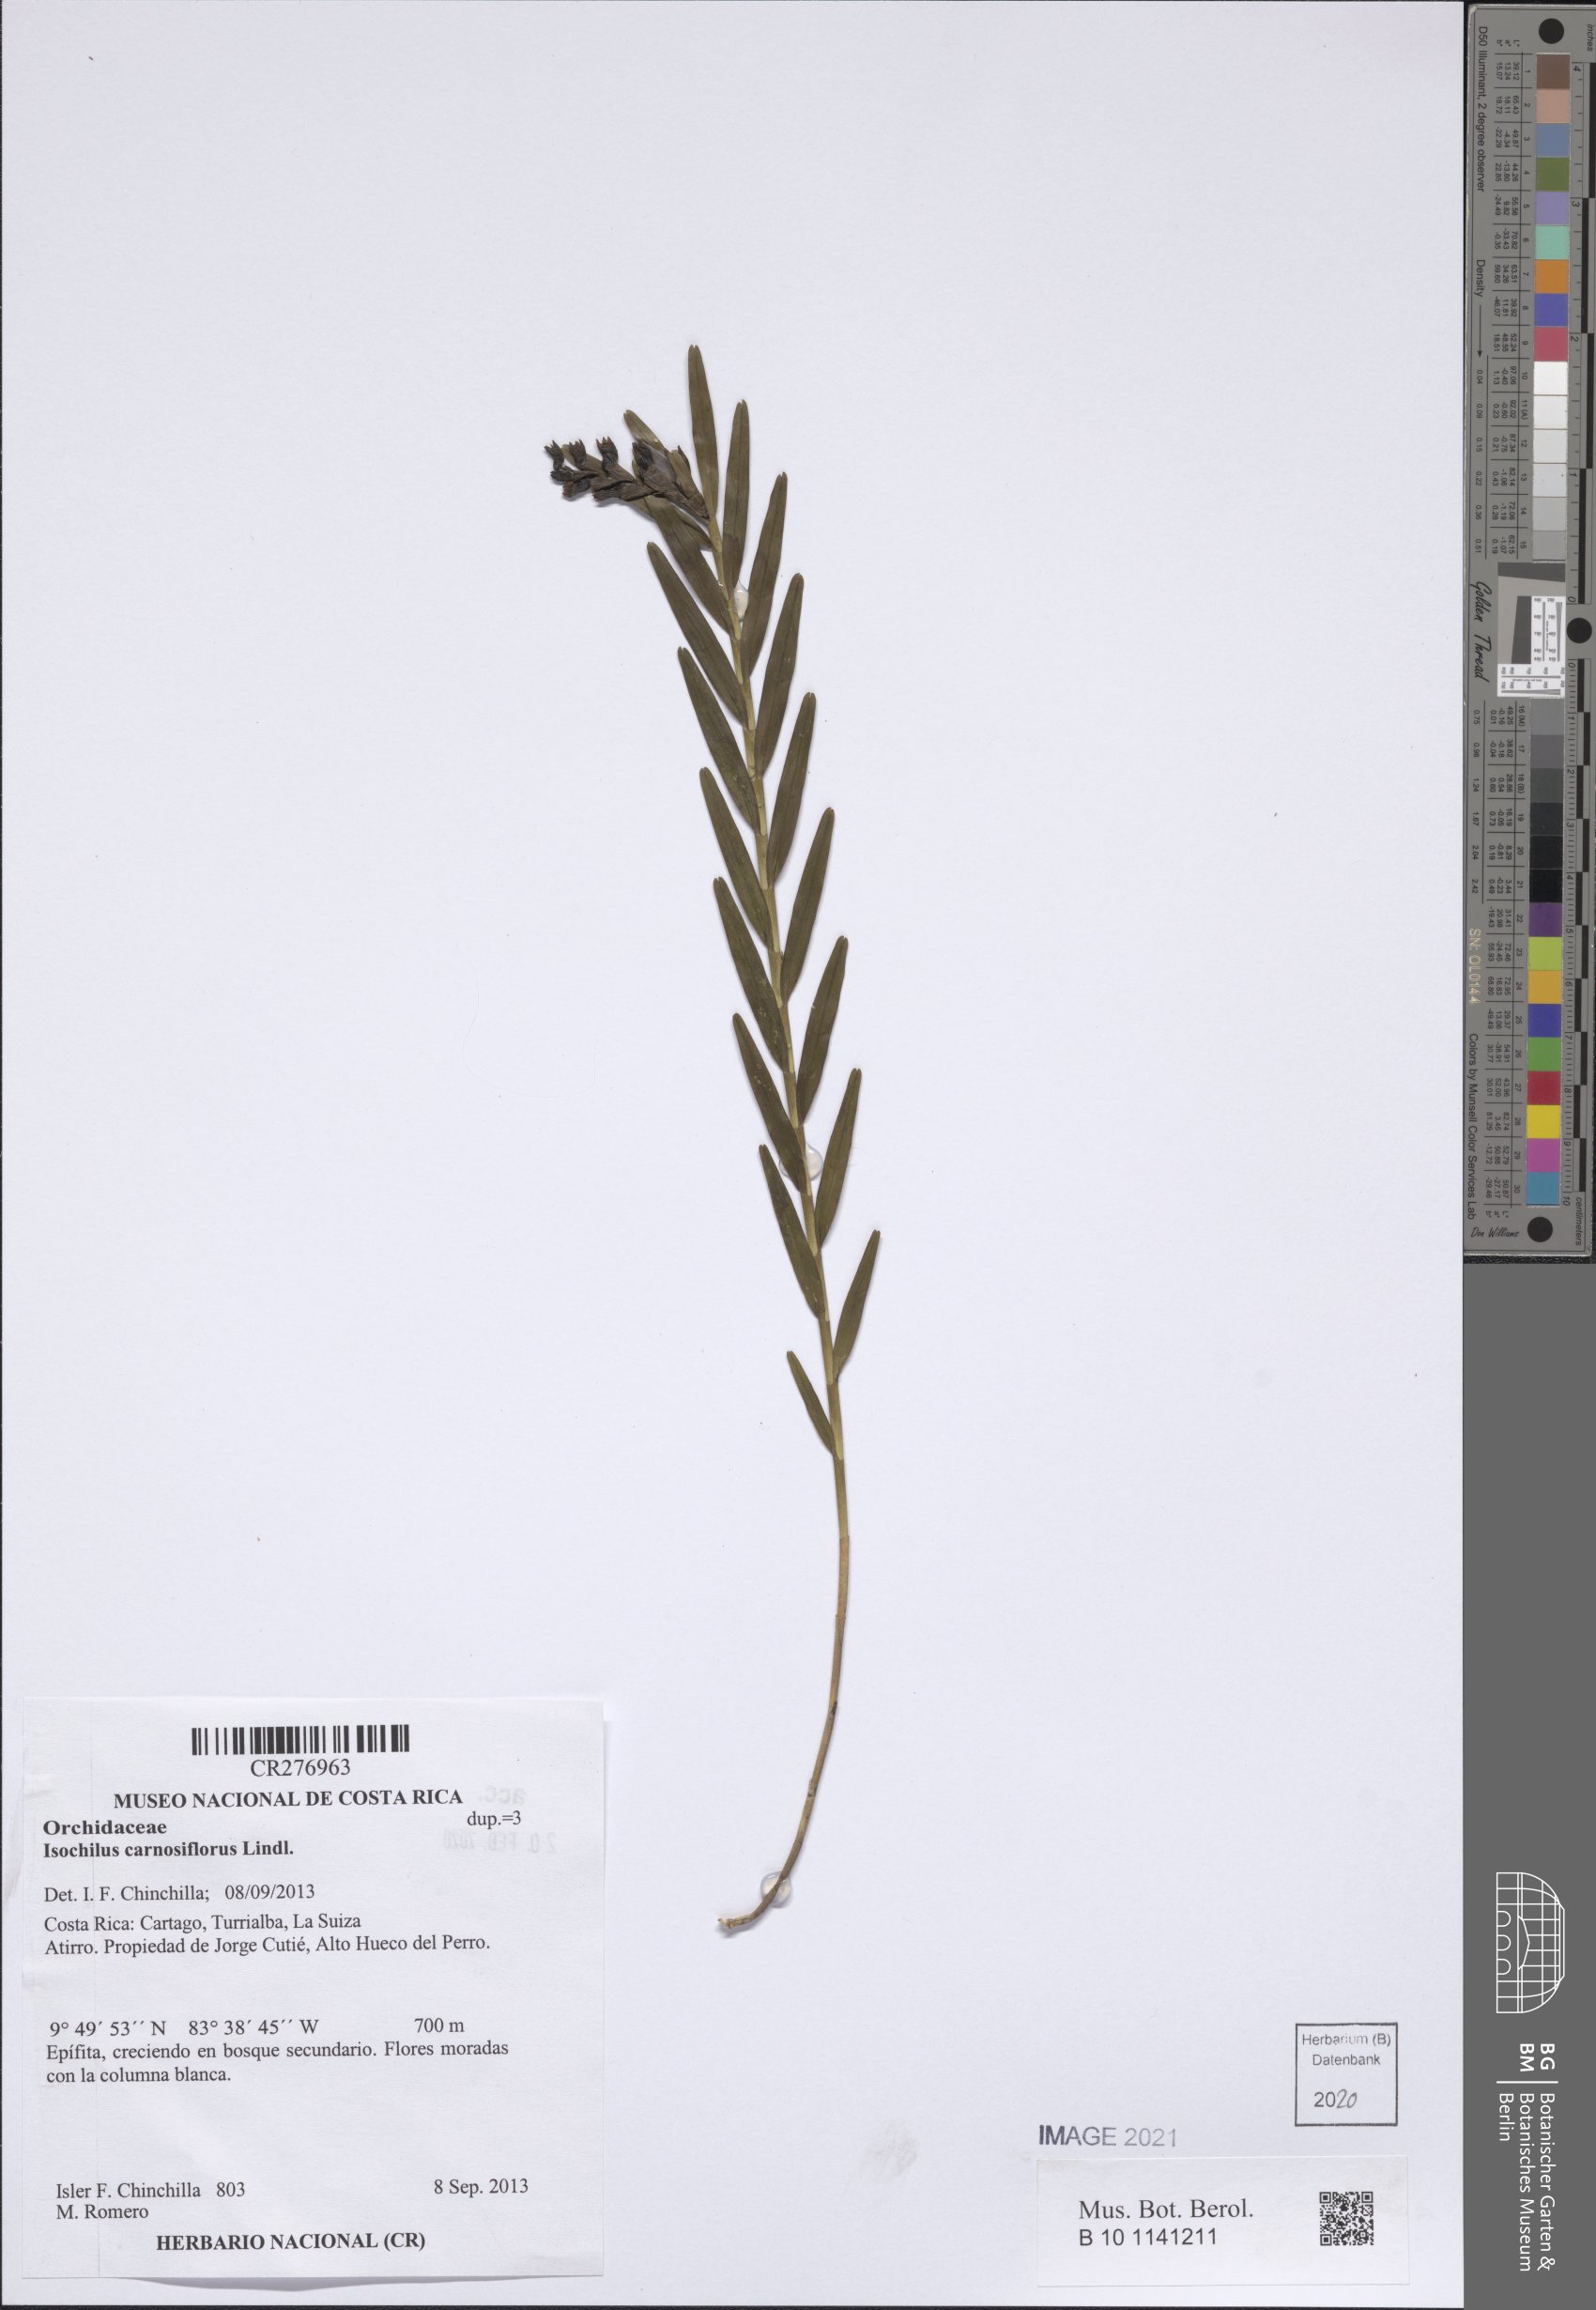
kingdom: Plantae
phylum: Tracheophyta
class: Liliopsida
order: Asparagales
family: Orchidaceae
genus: Isochilus
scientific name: Isochilus
